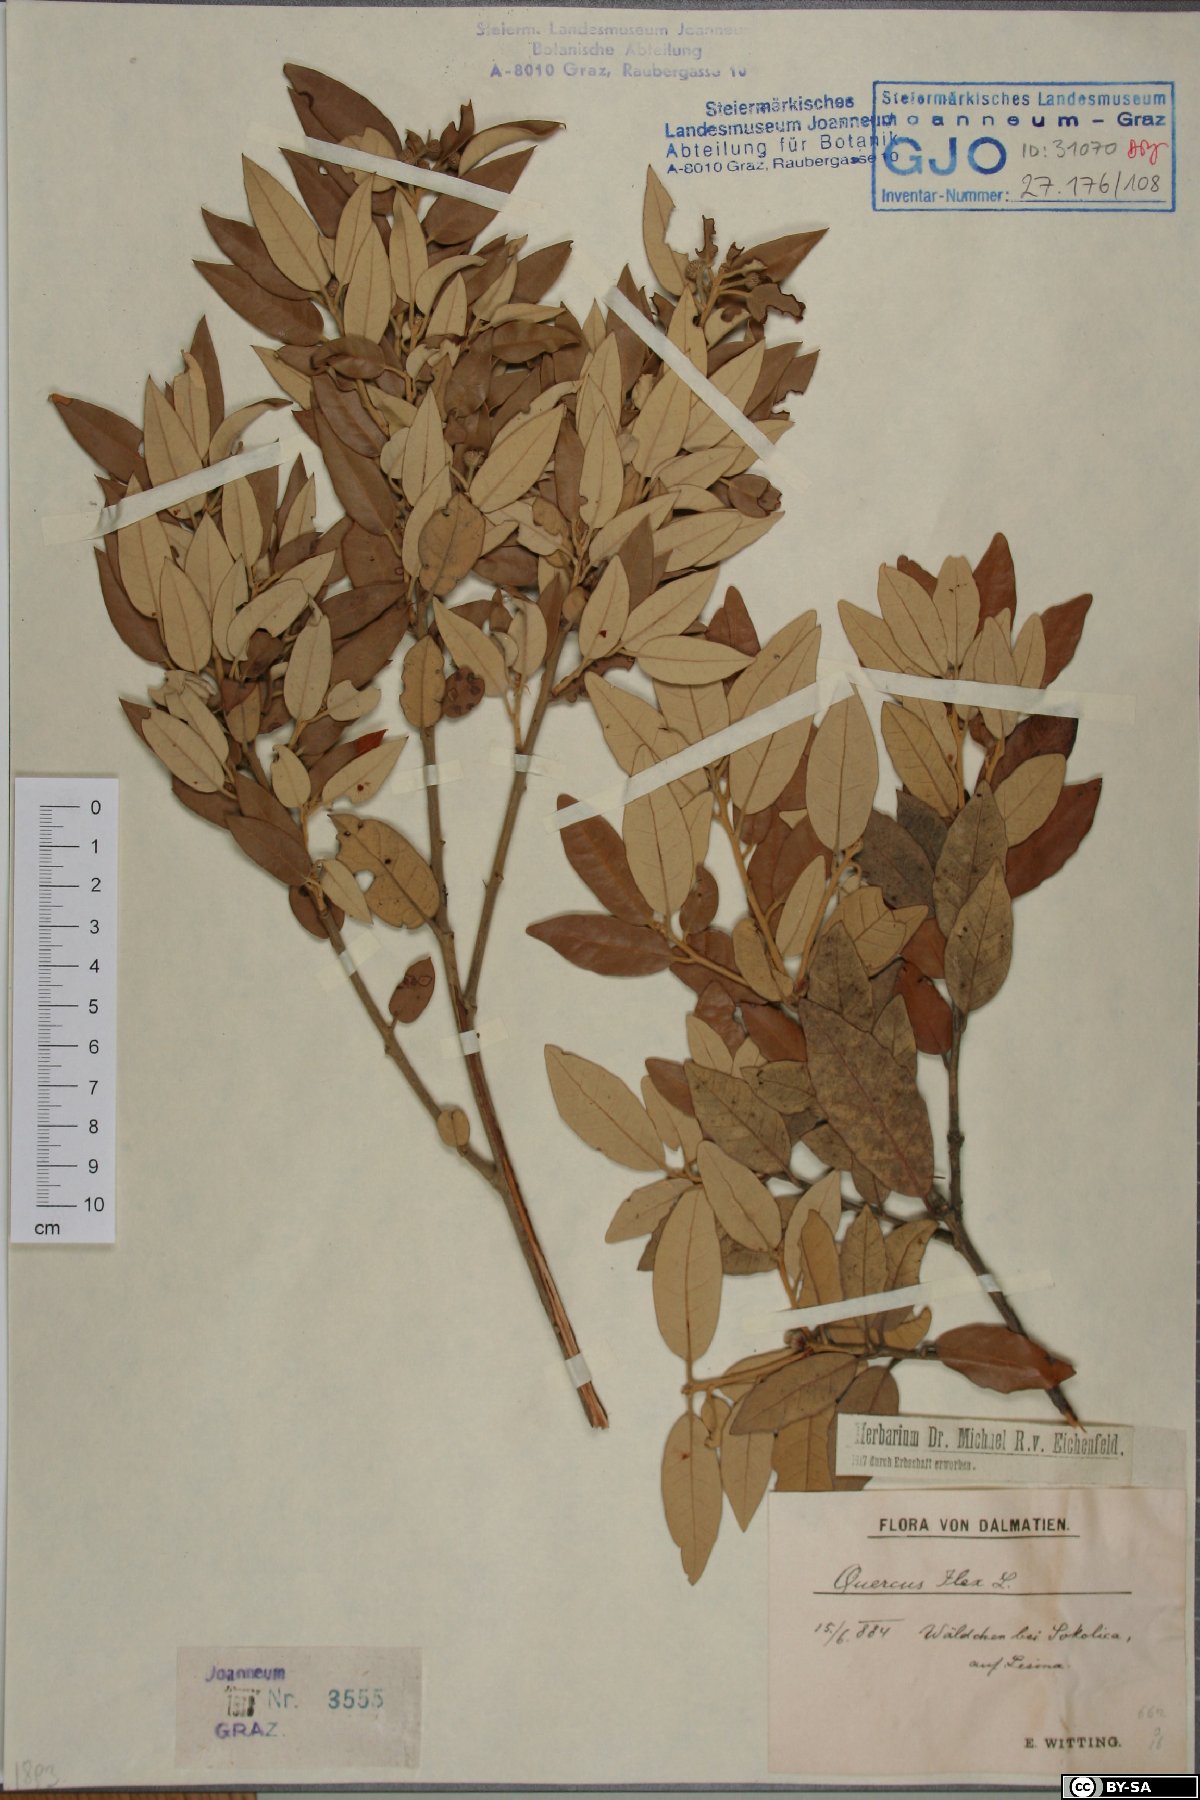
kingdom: Plantae
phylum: Tracheophyta
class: Magnoliopsida
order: Fagales
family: Fagaceae
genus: Quercus
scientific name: Quercus ilex
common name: Evergreen oak
